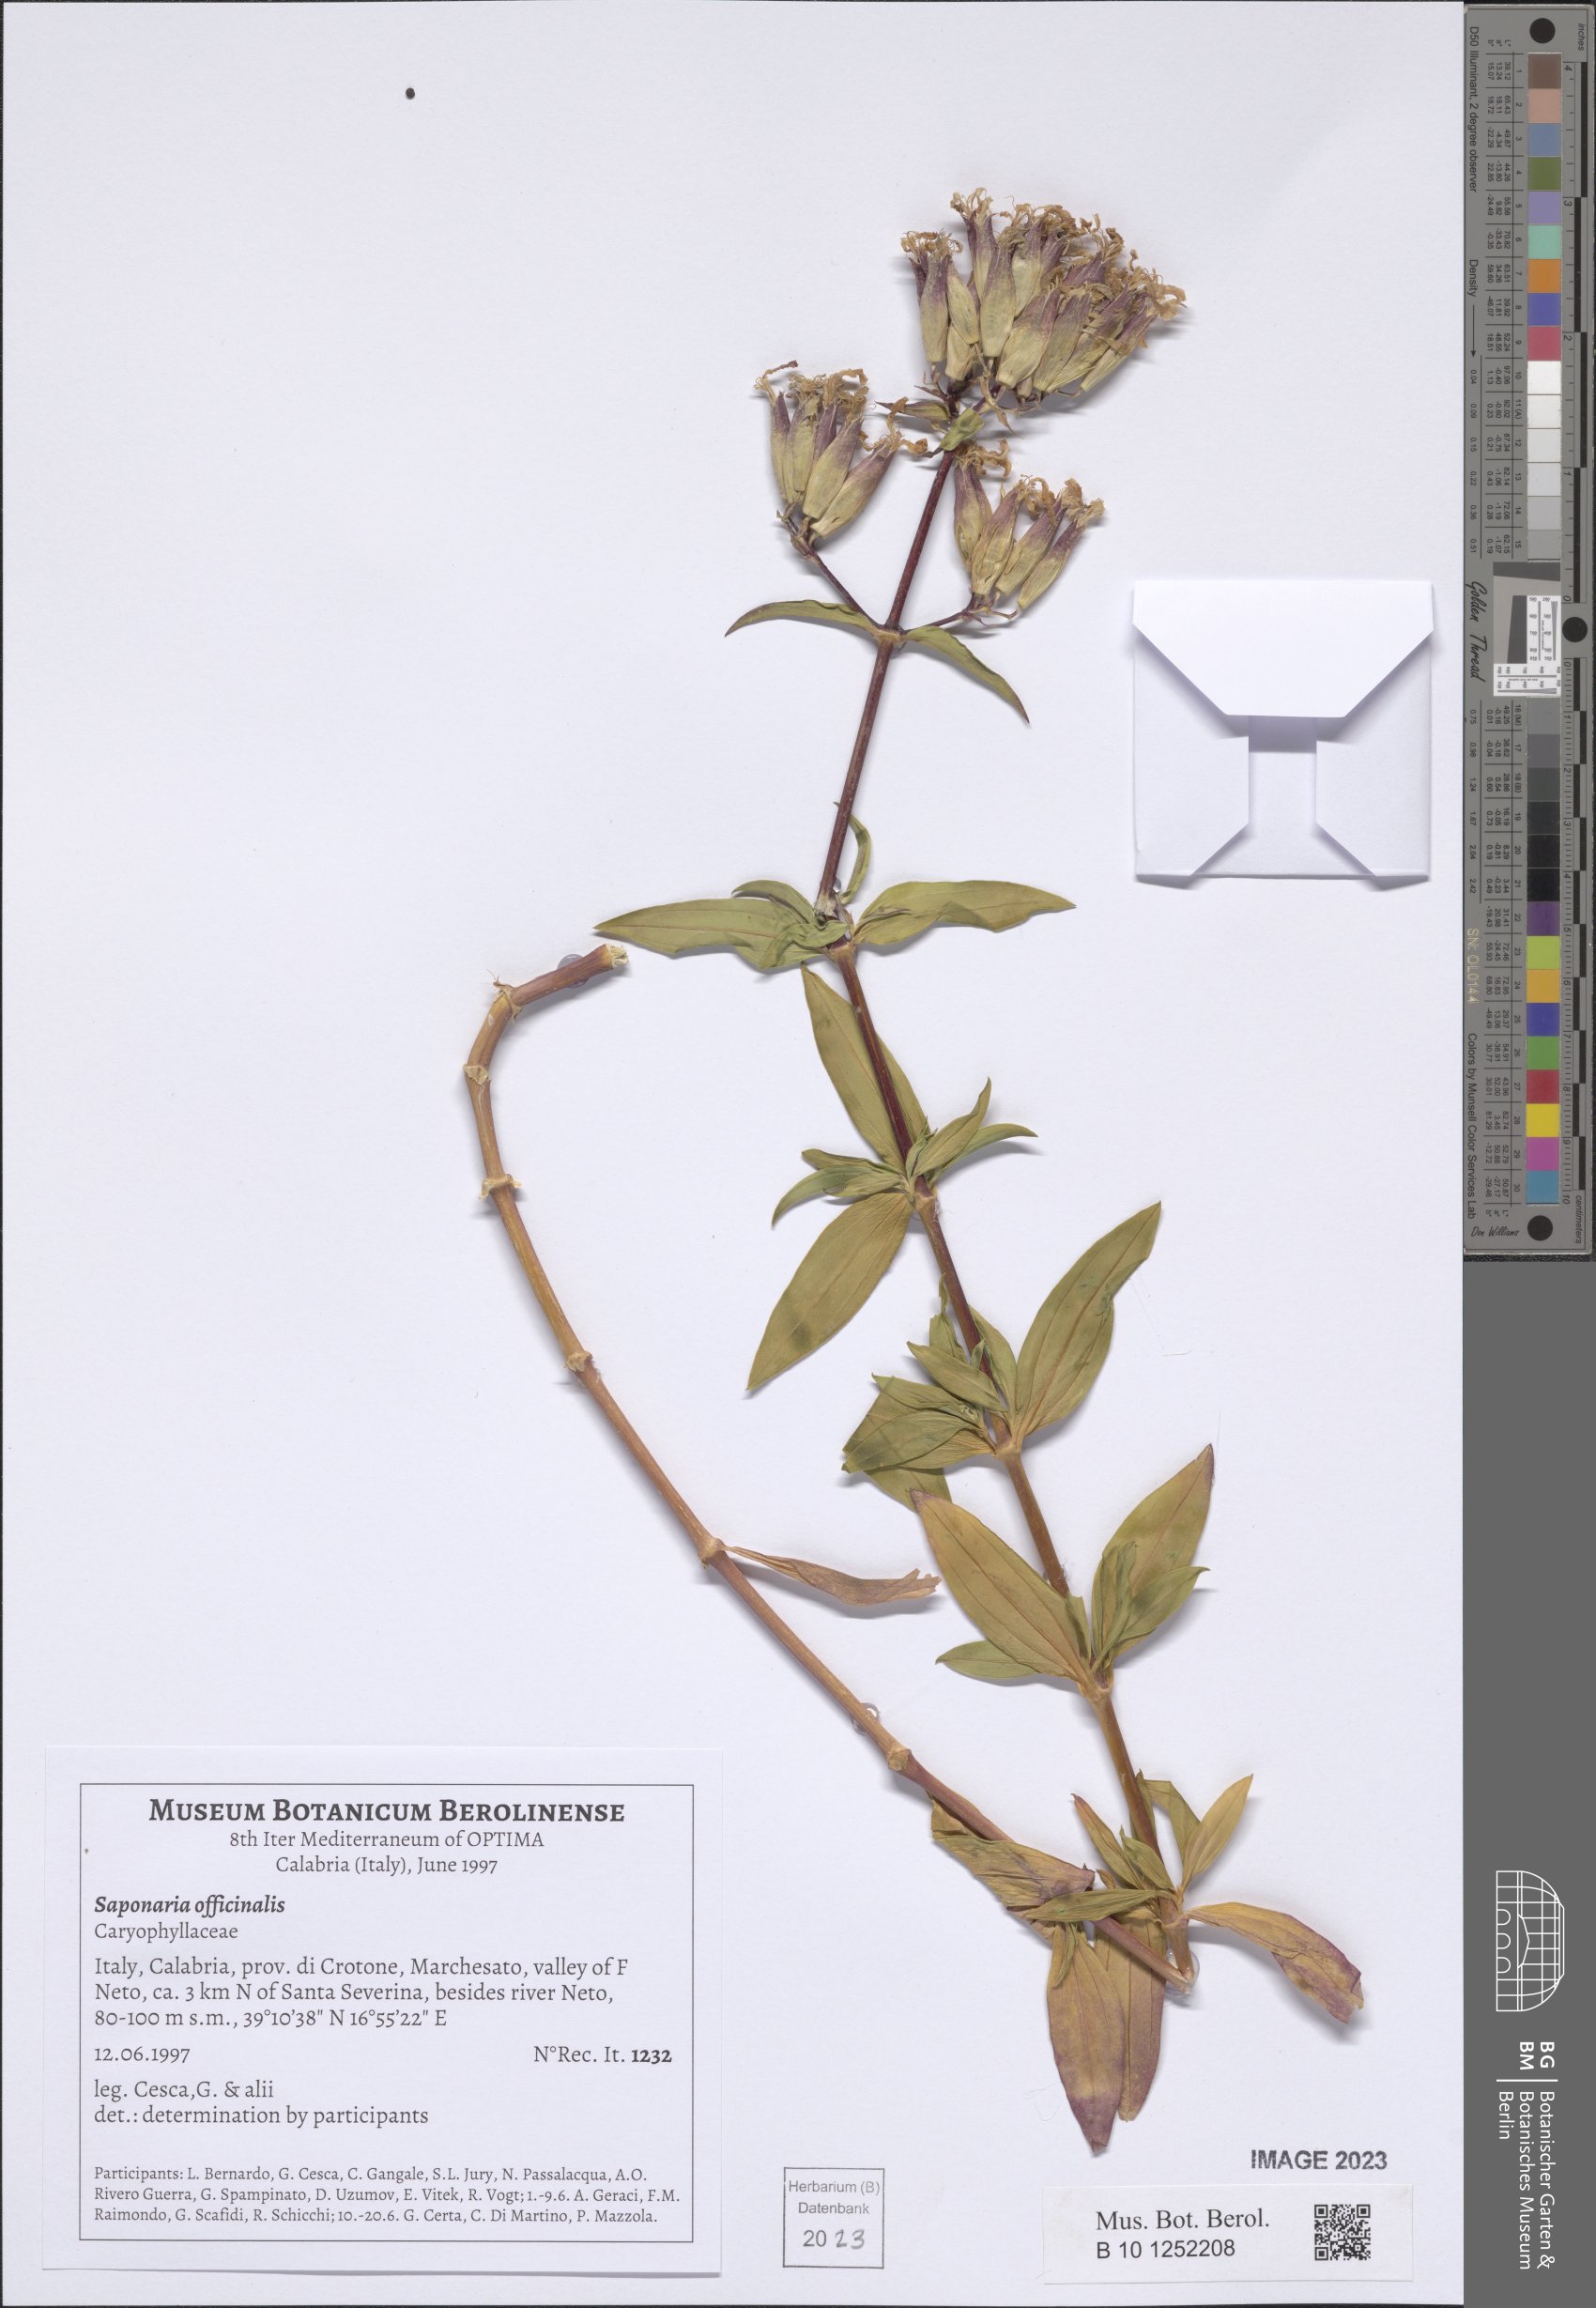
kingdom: Plantae
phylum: Tracheophyta
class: Magnoliopsida
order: Caryophyllales
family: Caryophyllaceae
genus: Saponaria
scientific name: Saponaria officinalis
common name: Soapwort
